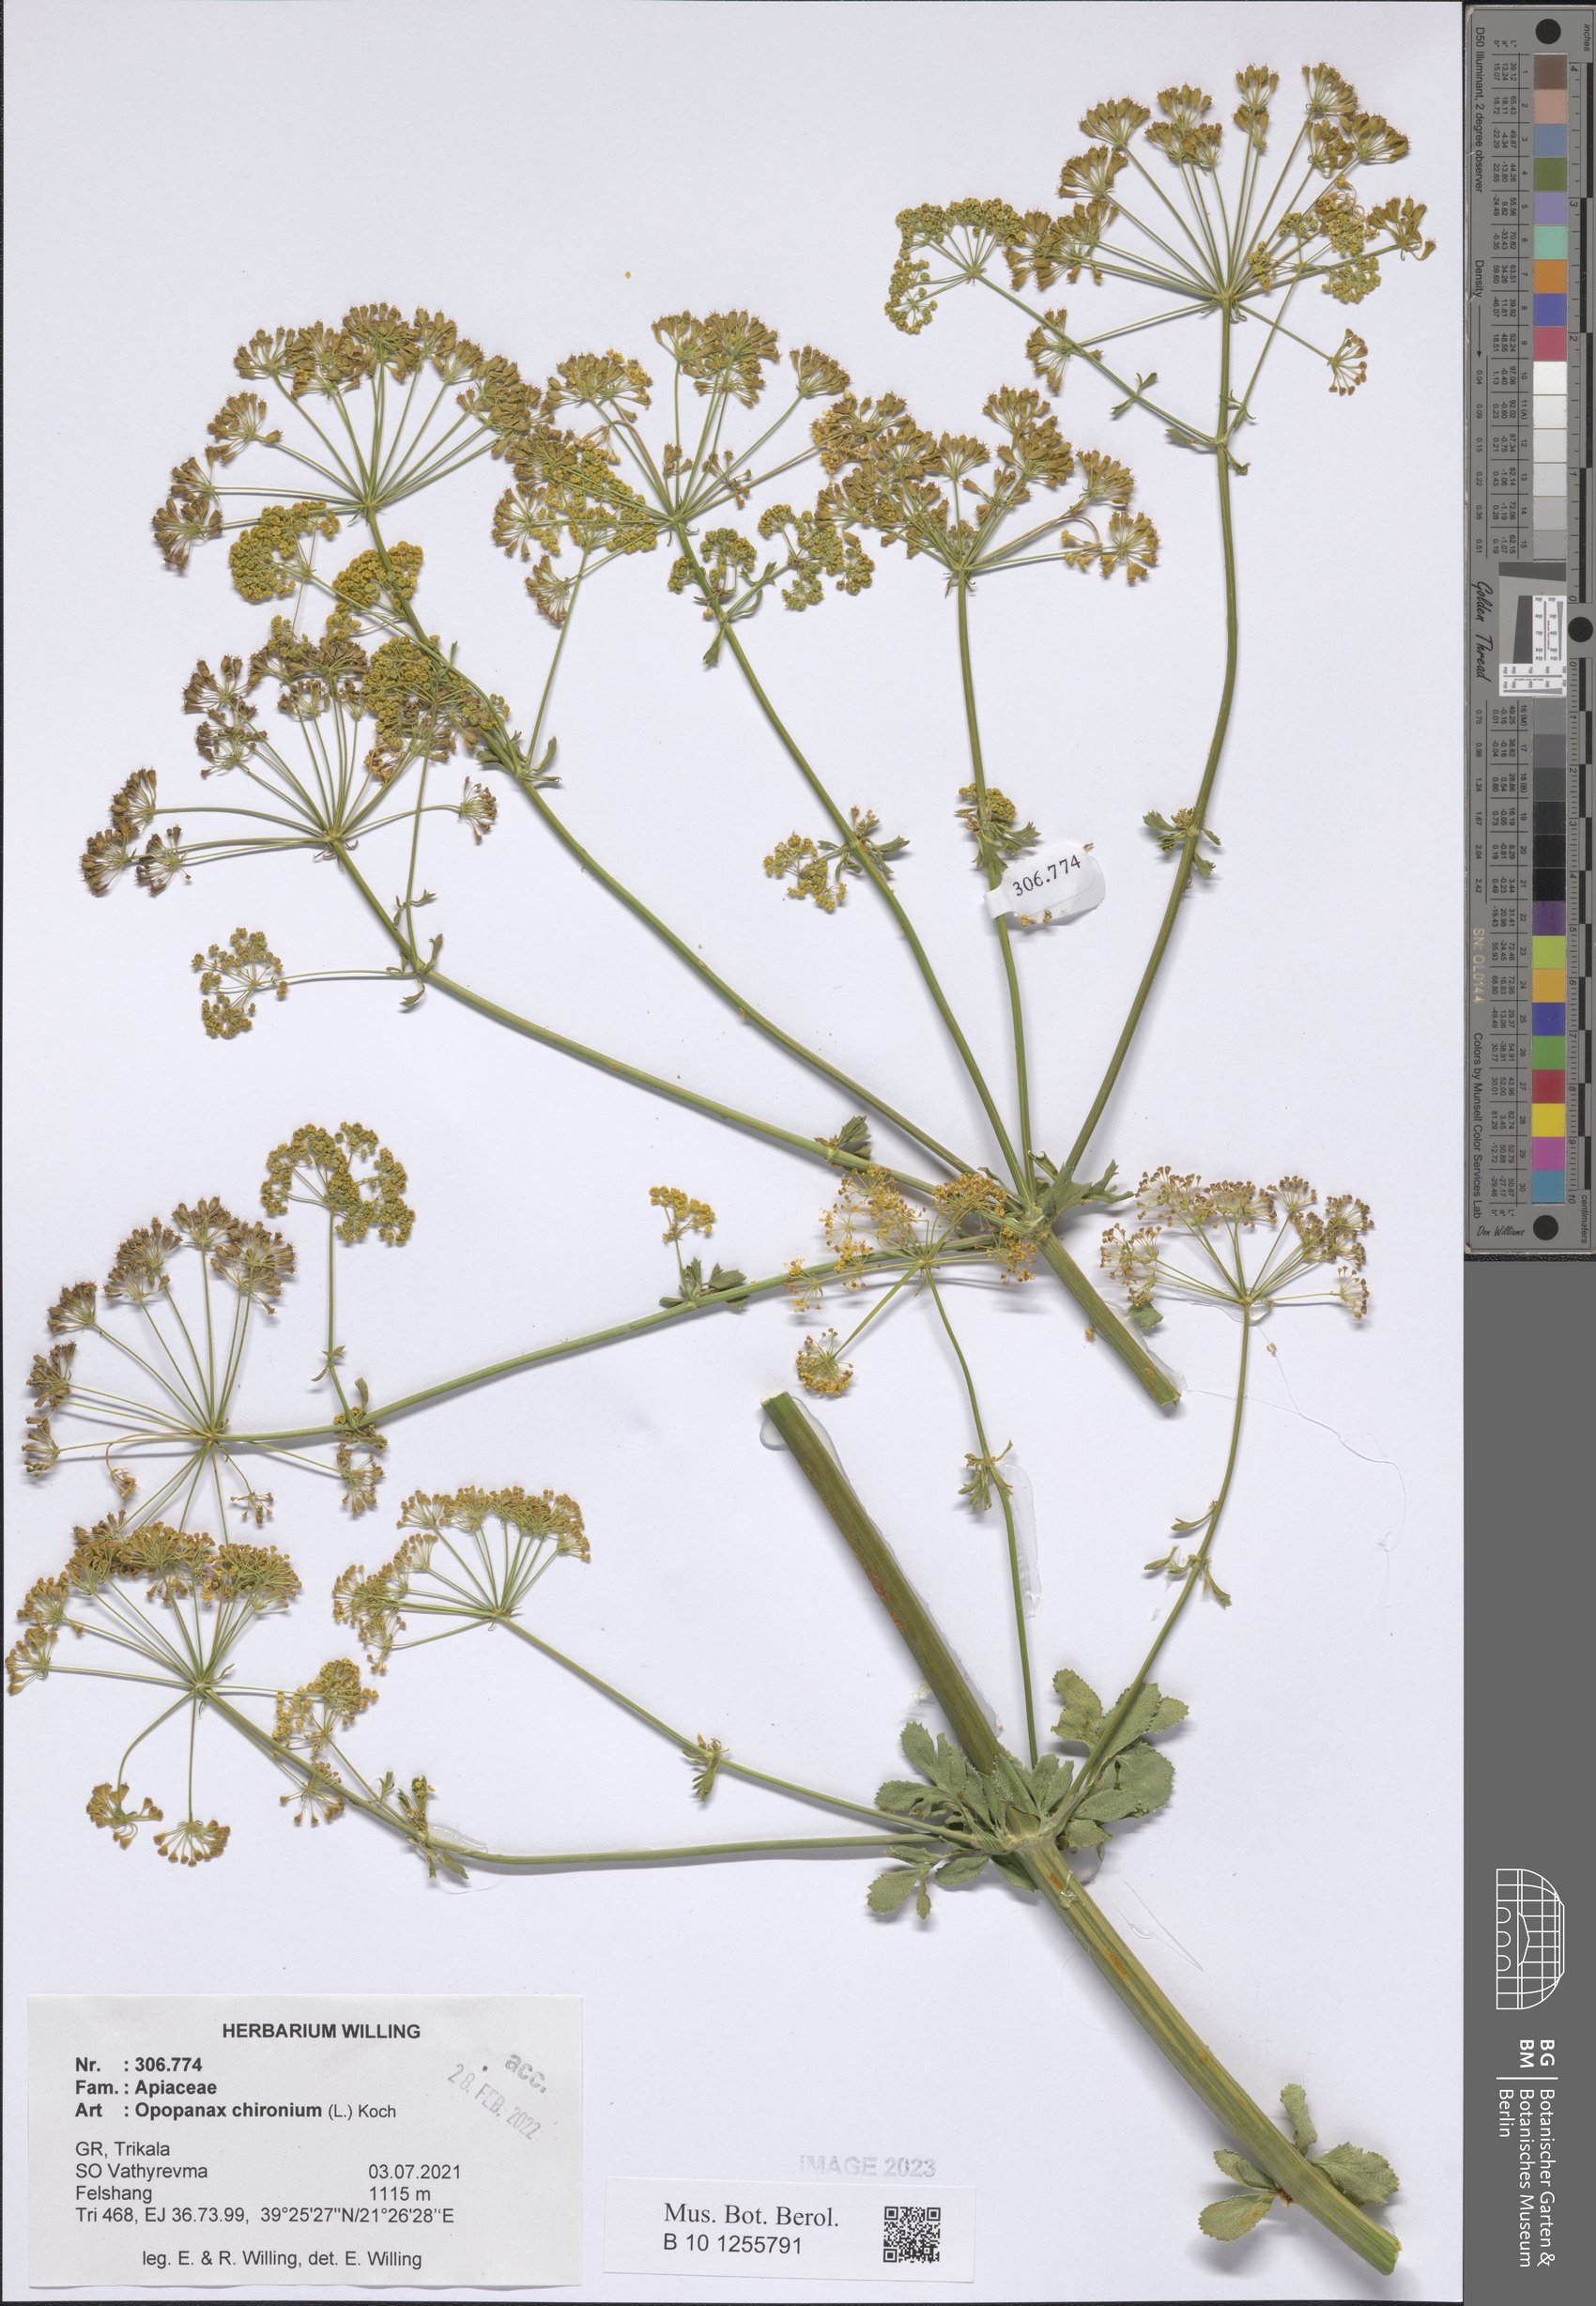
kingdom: Plantae
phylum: Tracheophyta
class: Magnoliopsida
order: Apiales
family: Apiaceae
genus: Opopanax
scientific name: Opopanax chironium
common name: Hercules-all-heal
